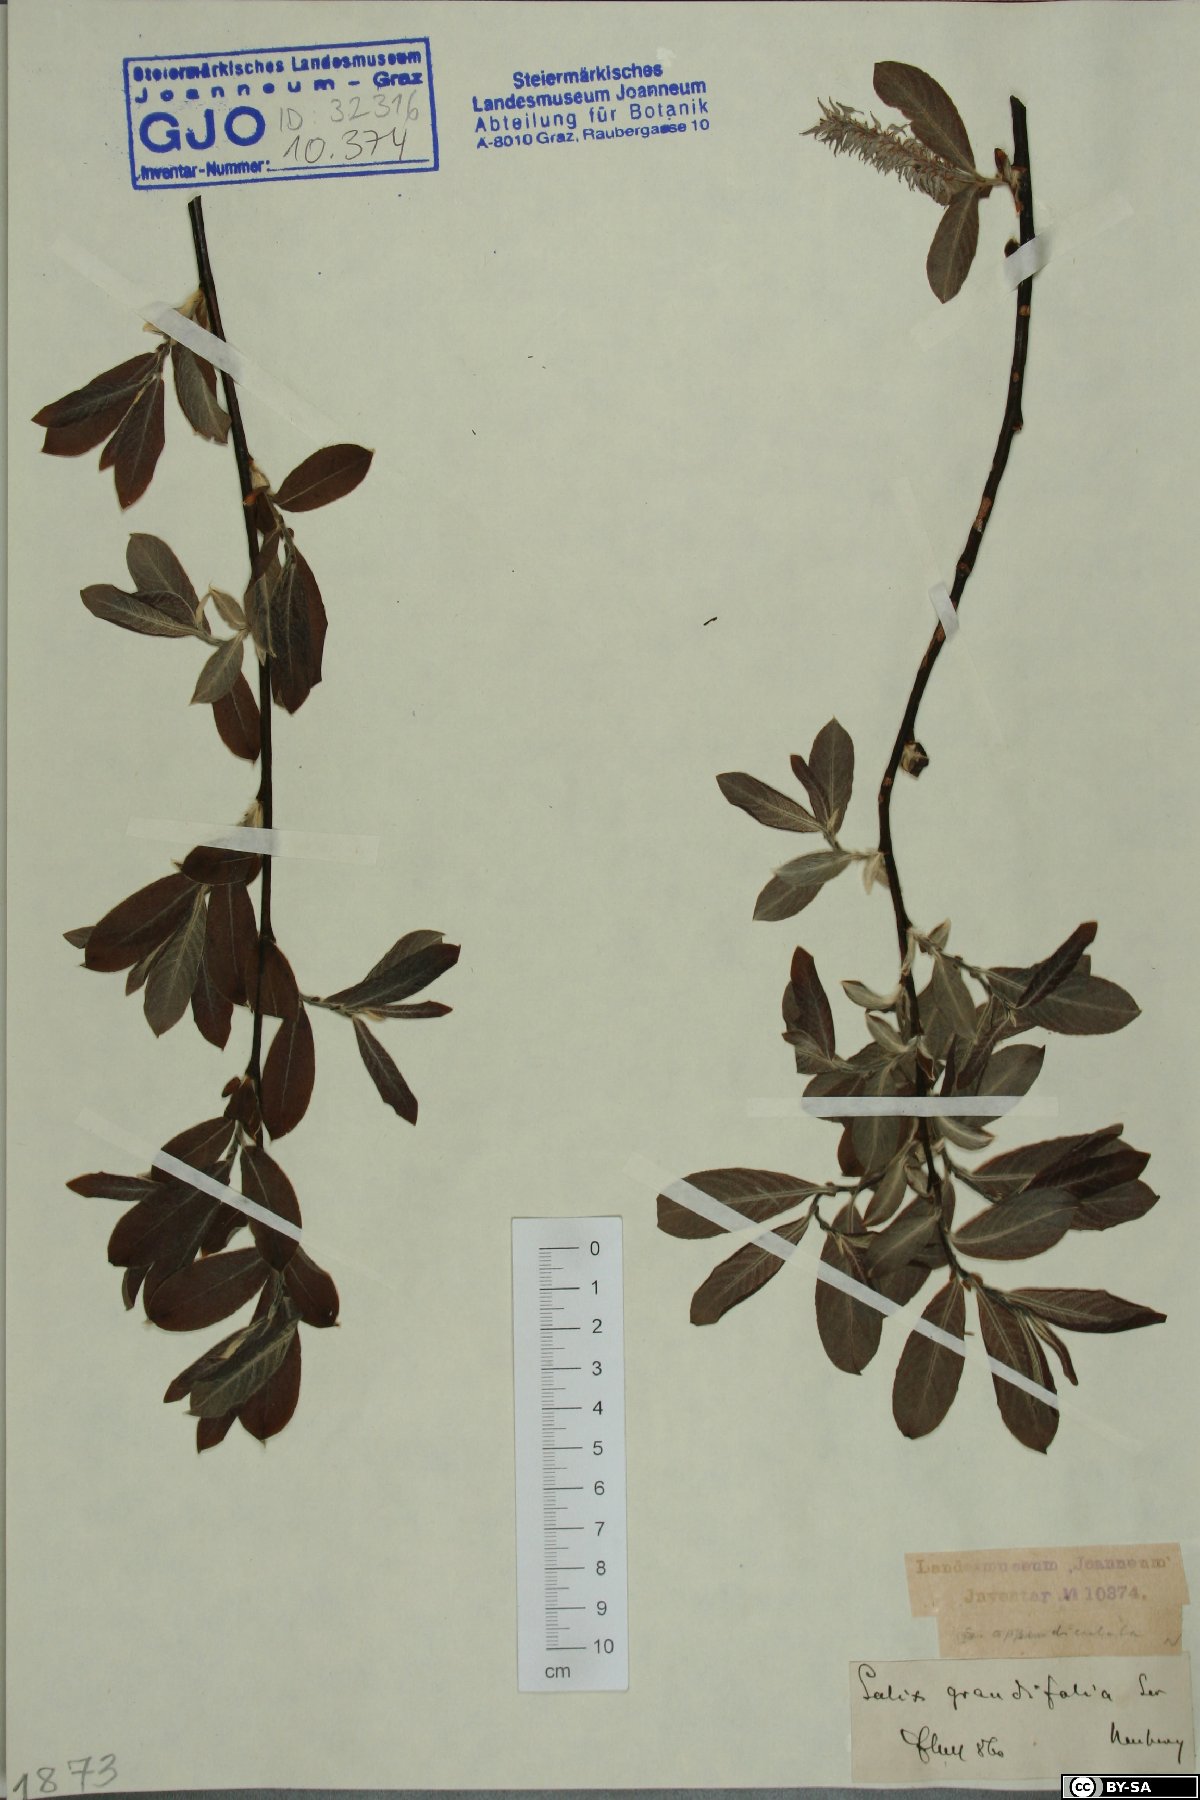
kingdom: Plantae
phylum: Tracheophyta
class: Magnoliopsida
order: Malpighiales
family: Salicaceae
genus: Salix
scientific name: Salix appendiculata
